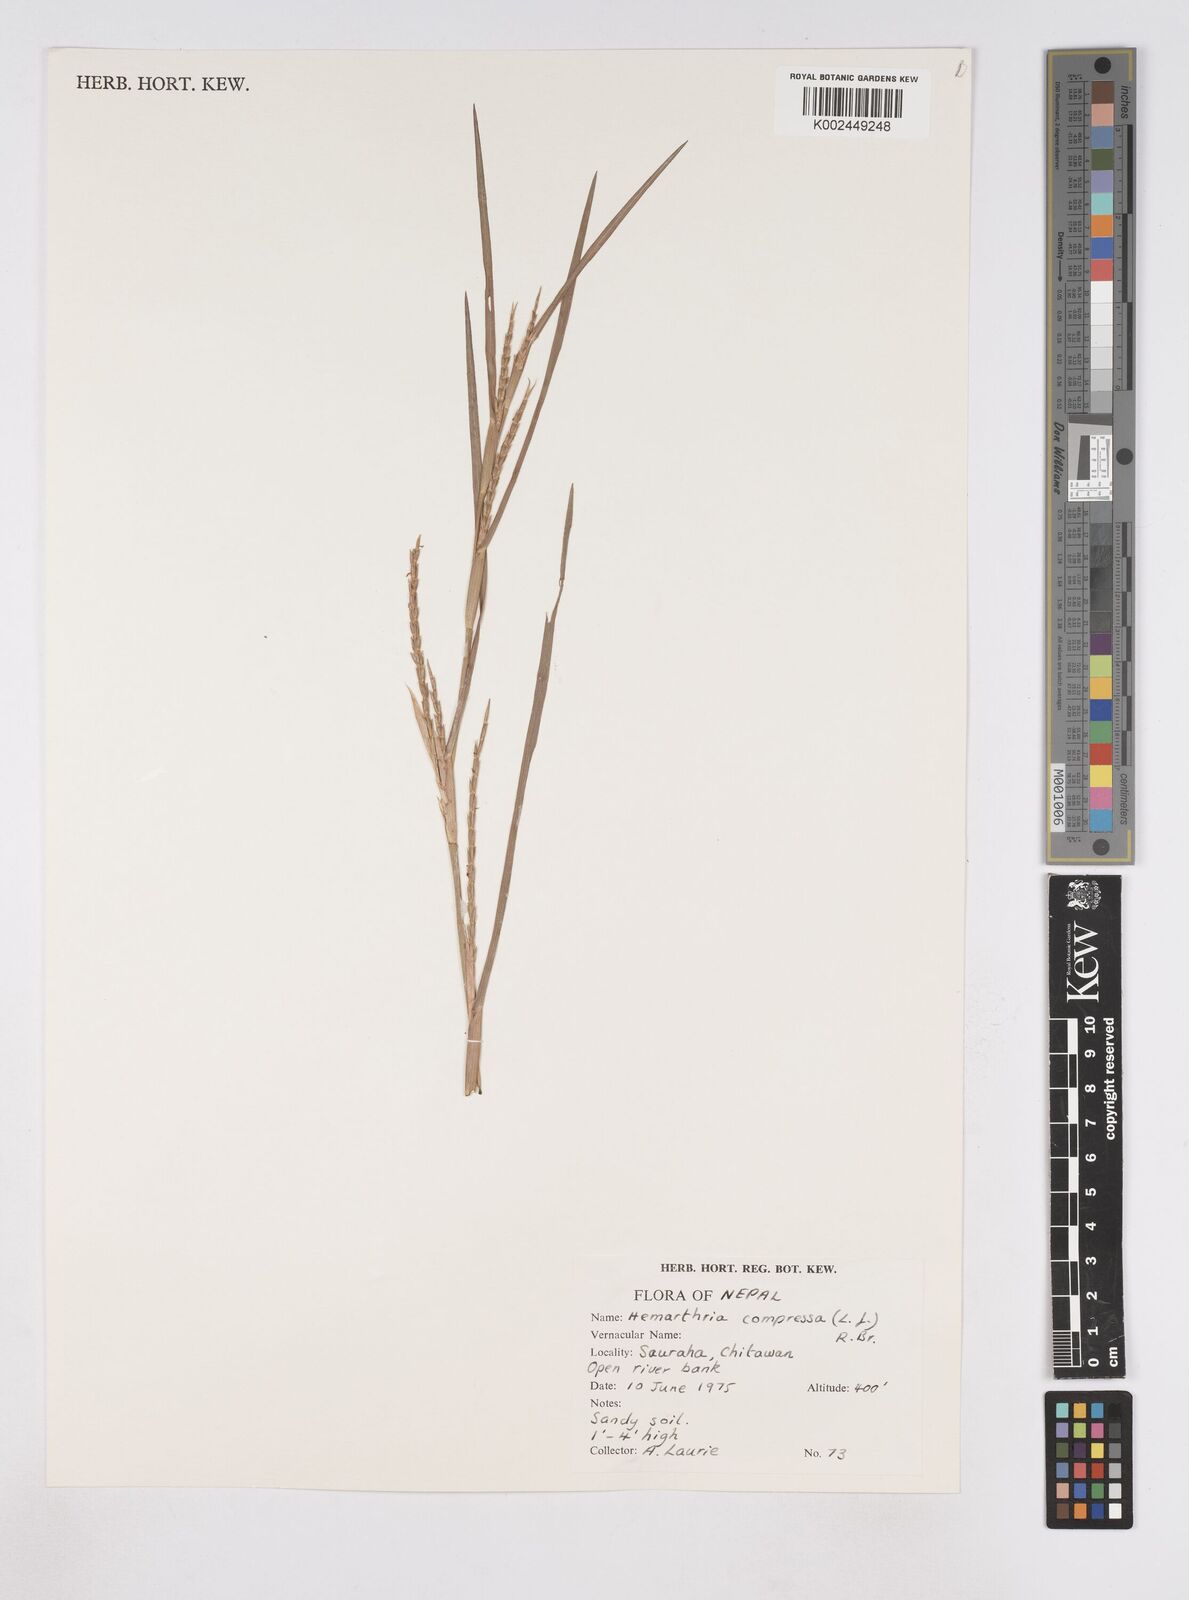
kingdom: Plantae
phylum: Tracheophyta
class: Liliopsida
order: Poales
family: Poaceae
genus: Hemarthria
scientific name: Hemarthria compressa
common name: Whip grass
